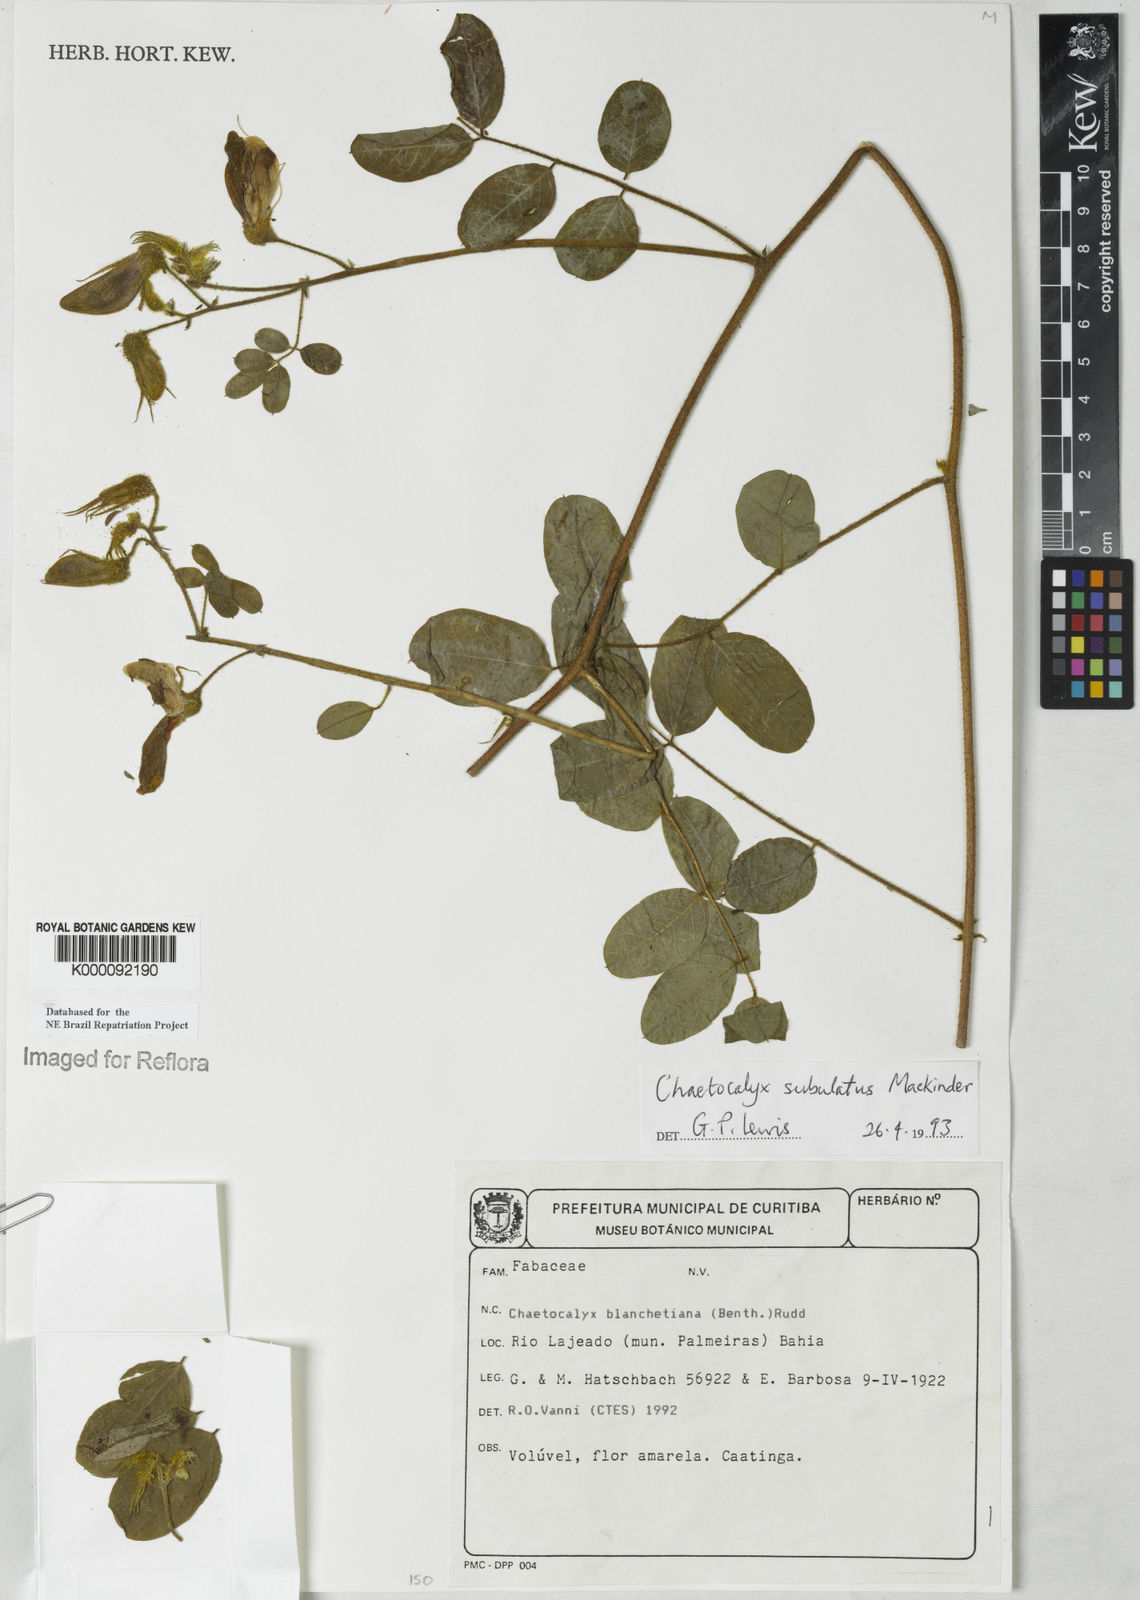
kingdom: Plantae
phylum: Tracheophyta
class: Magnoliopsida
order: Fabales
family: Fabaceae
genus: Nissolia
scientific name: Nissolia subulata
